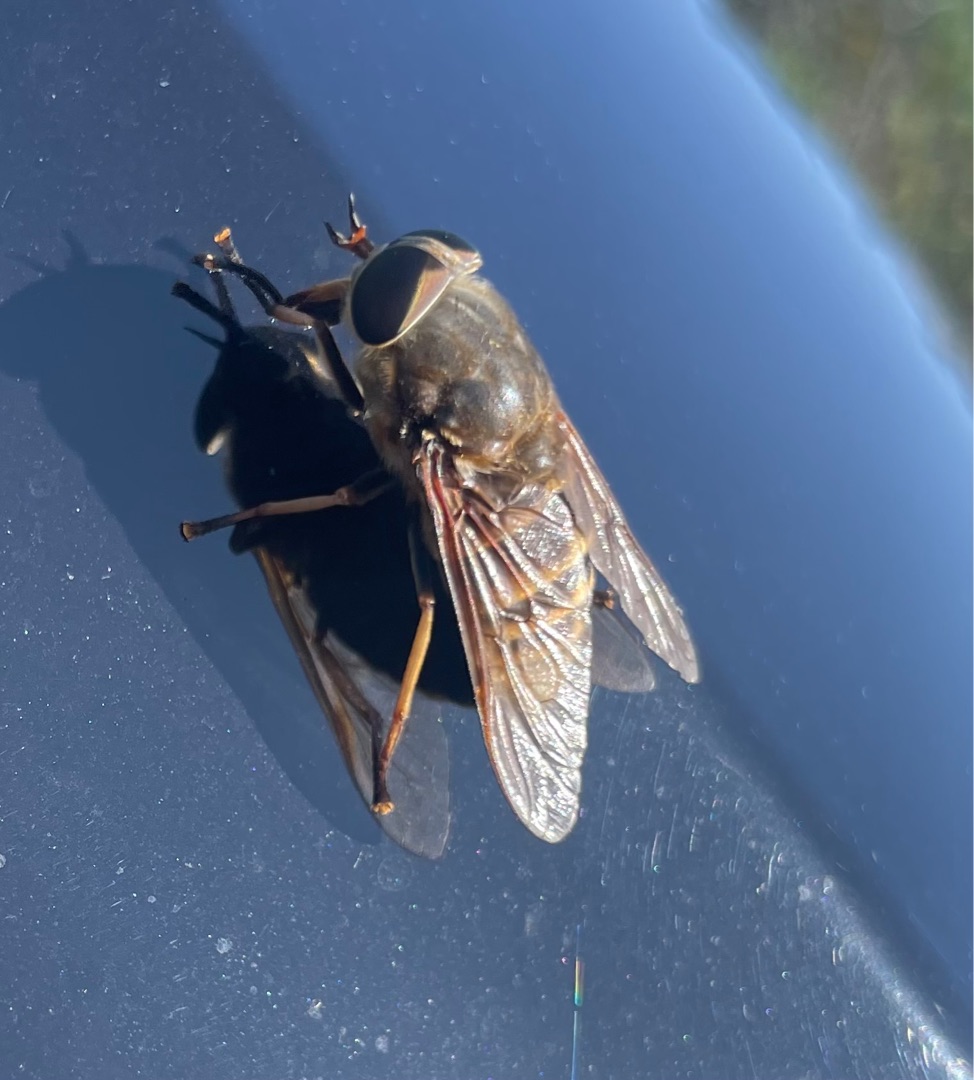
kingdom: Animalia
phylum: Arthropoda
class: Insecta
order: Diptera
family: Tabanidae
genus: Tabanus
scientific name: Tabanus sudeticus
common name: Hesteklæg
